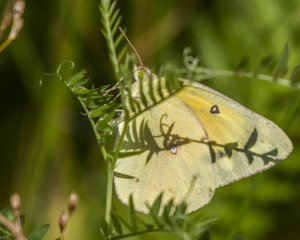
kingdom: Animalia
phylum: Arthropoda
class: Insecta
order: Lepidoptera
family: Pieridae
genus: Colias
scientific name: Colias eurytheme
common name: Orange Sulphur
